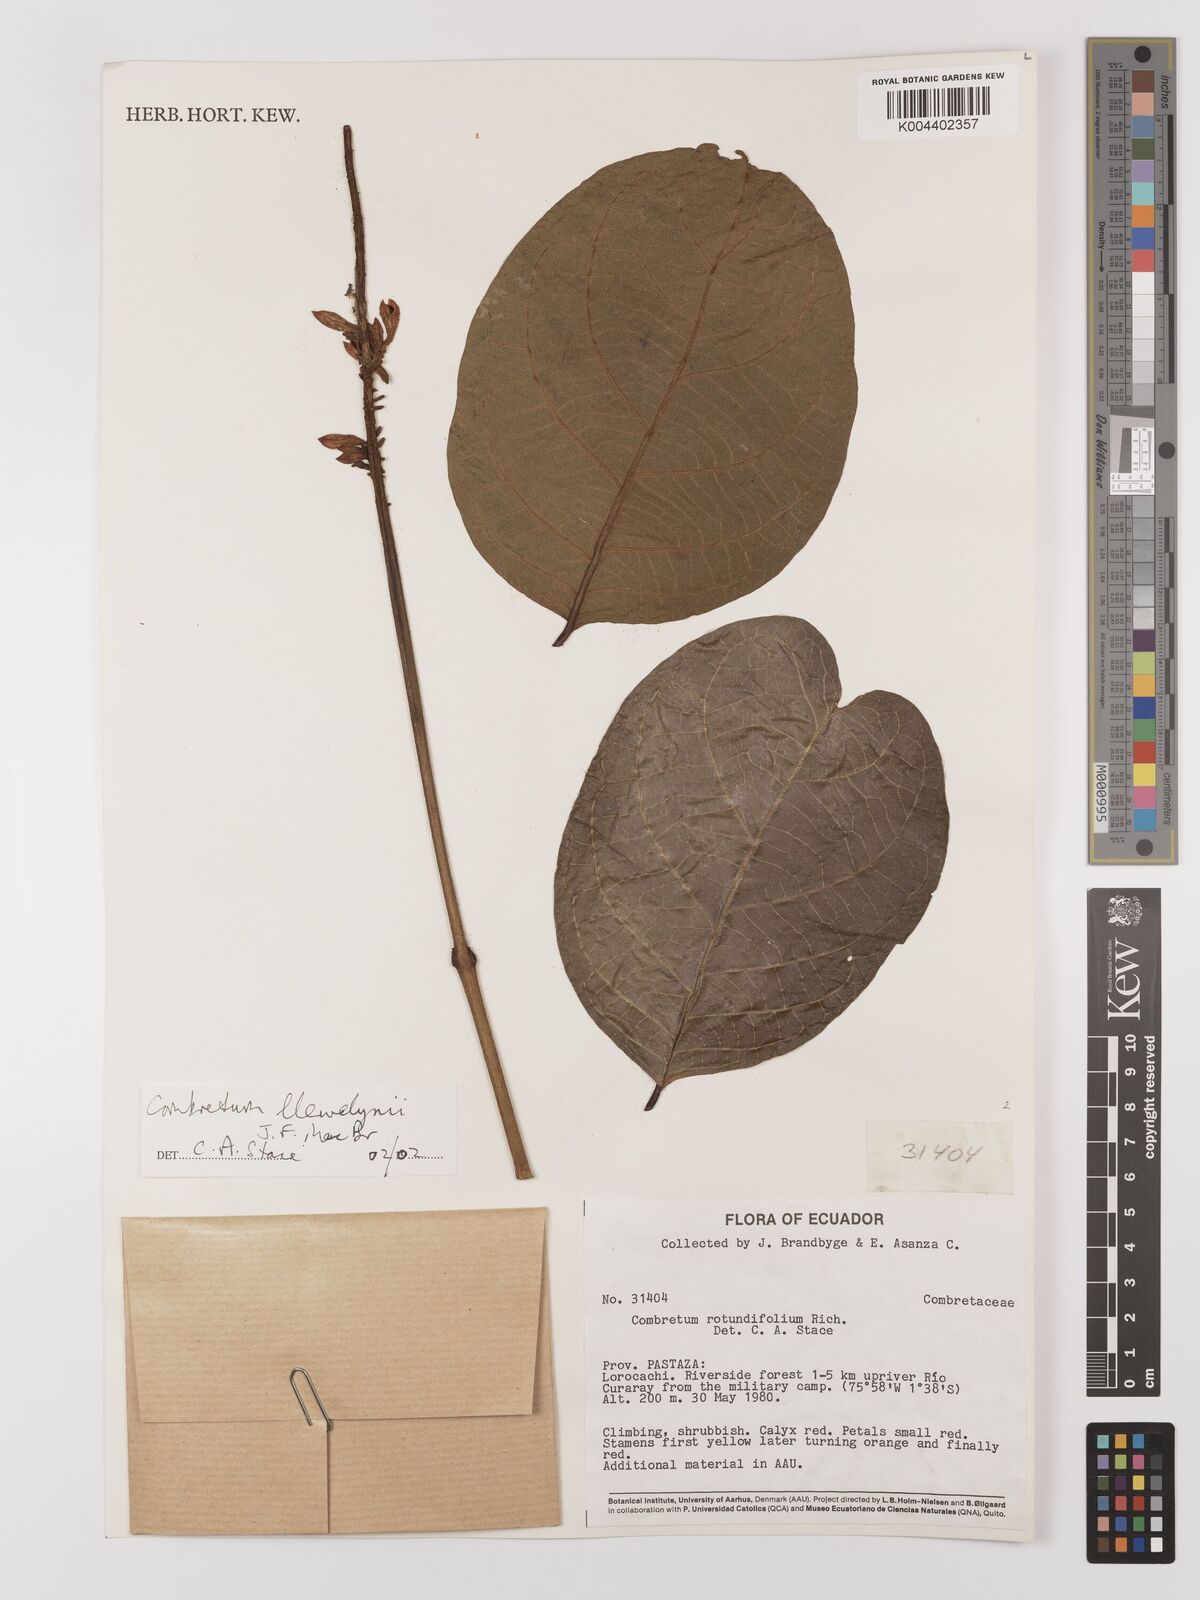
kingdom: Plantae
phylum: Tracheophyta
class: Magnoliopsida
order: Myrtales
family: Combretaceae
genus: Combretum
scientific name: Combretum llewelynii
